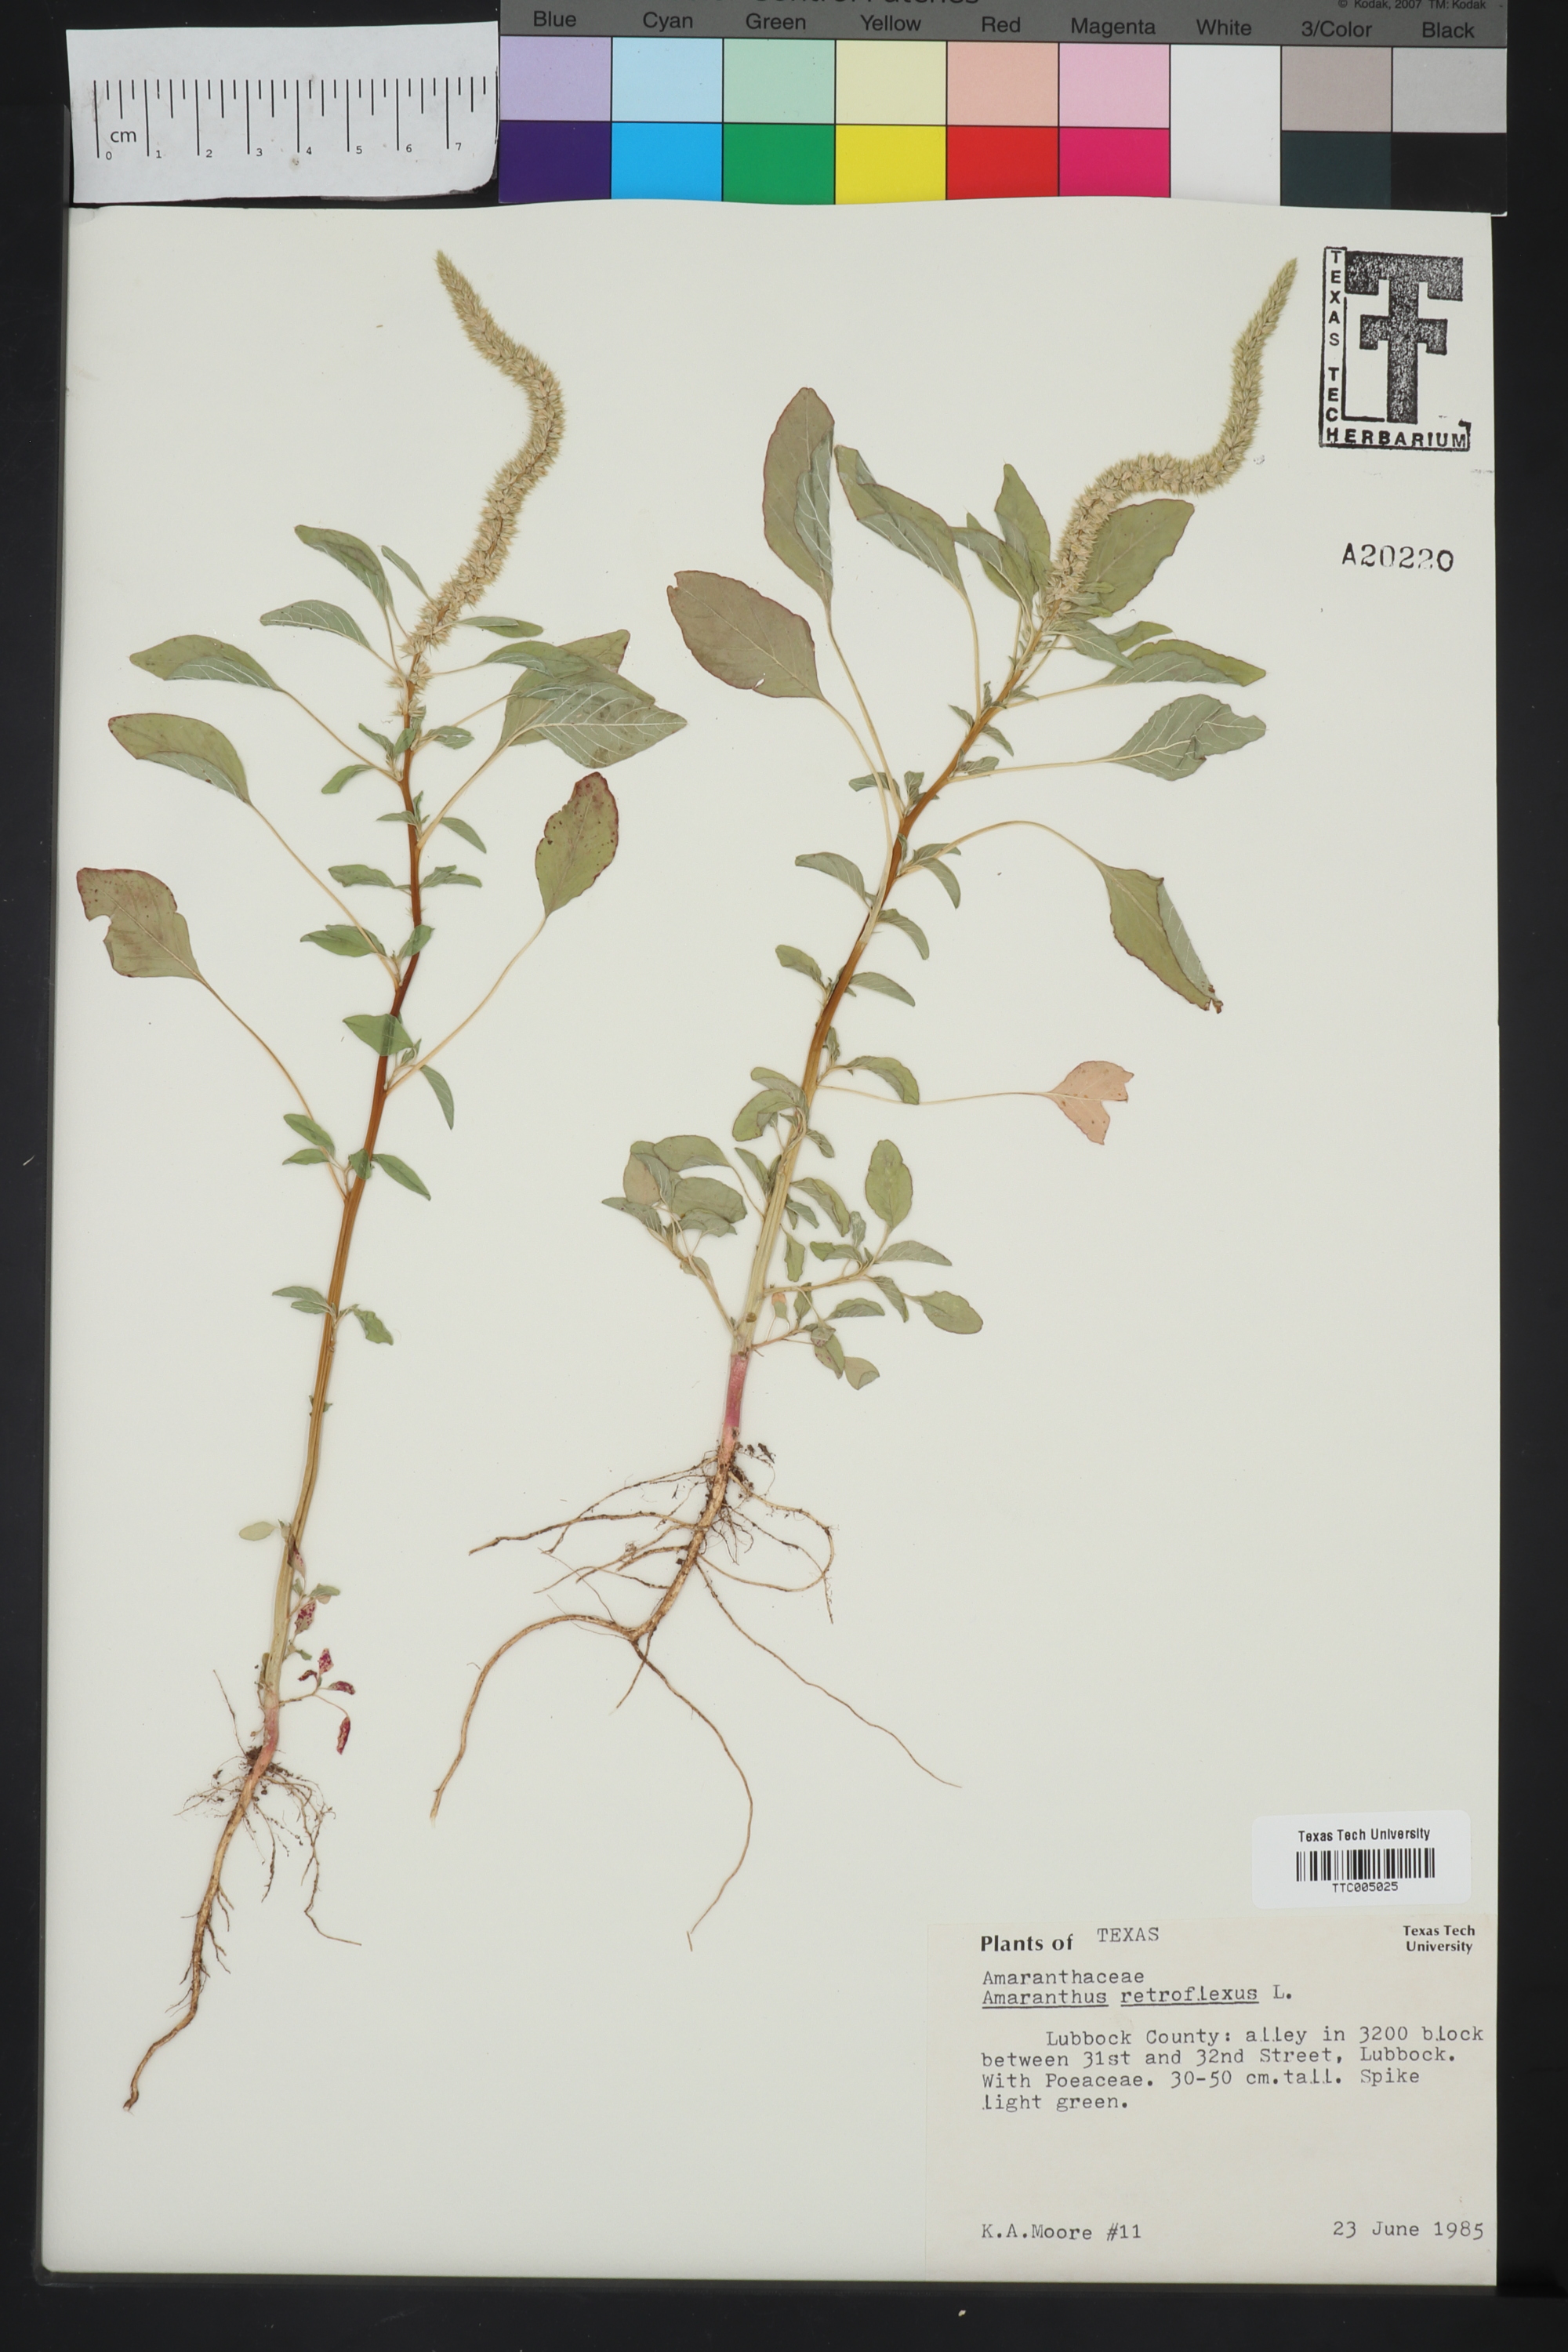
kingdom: Plantae
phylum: Tracheophyta
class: Magnoliopsida
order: Caryophyllales
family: Amaranthaceae
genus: Amaranthus
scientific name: Amaranthus retroflexus
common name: Redroot amaranth
